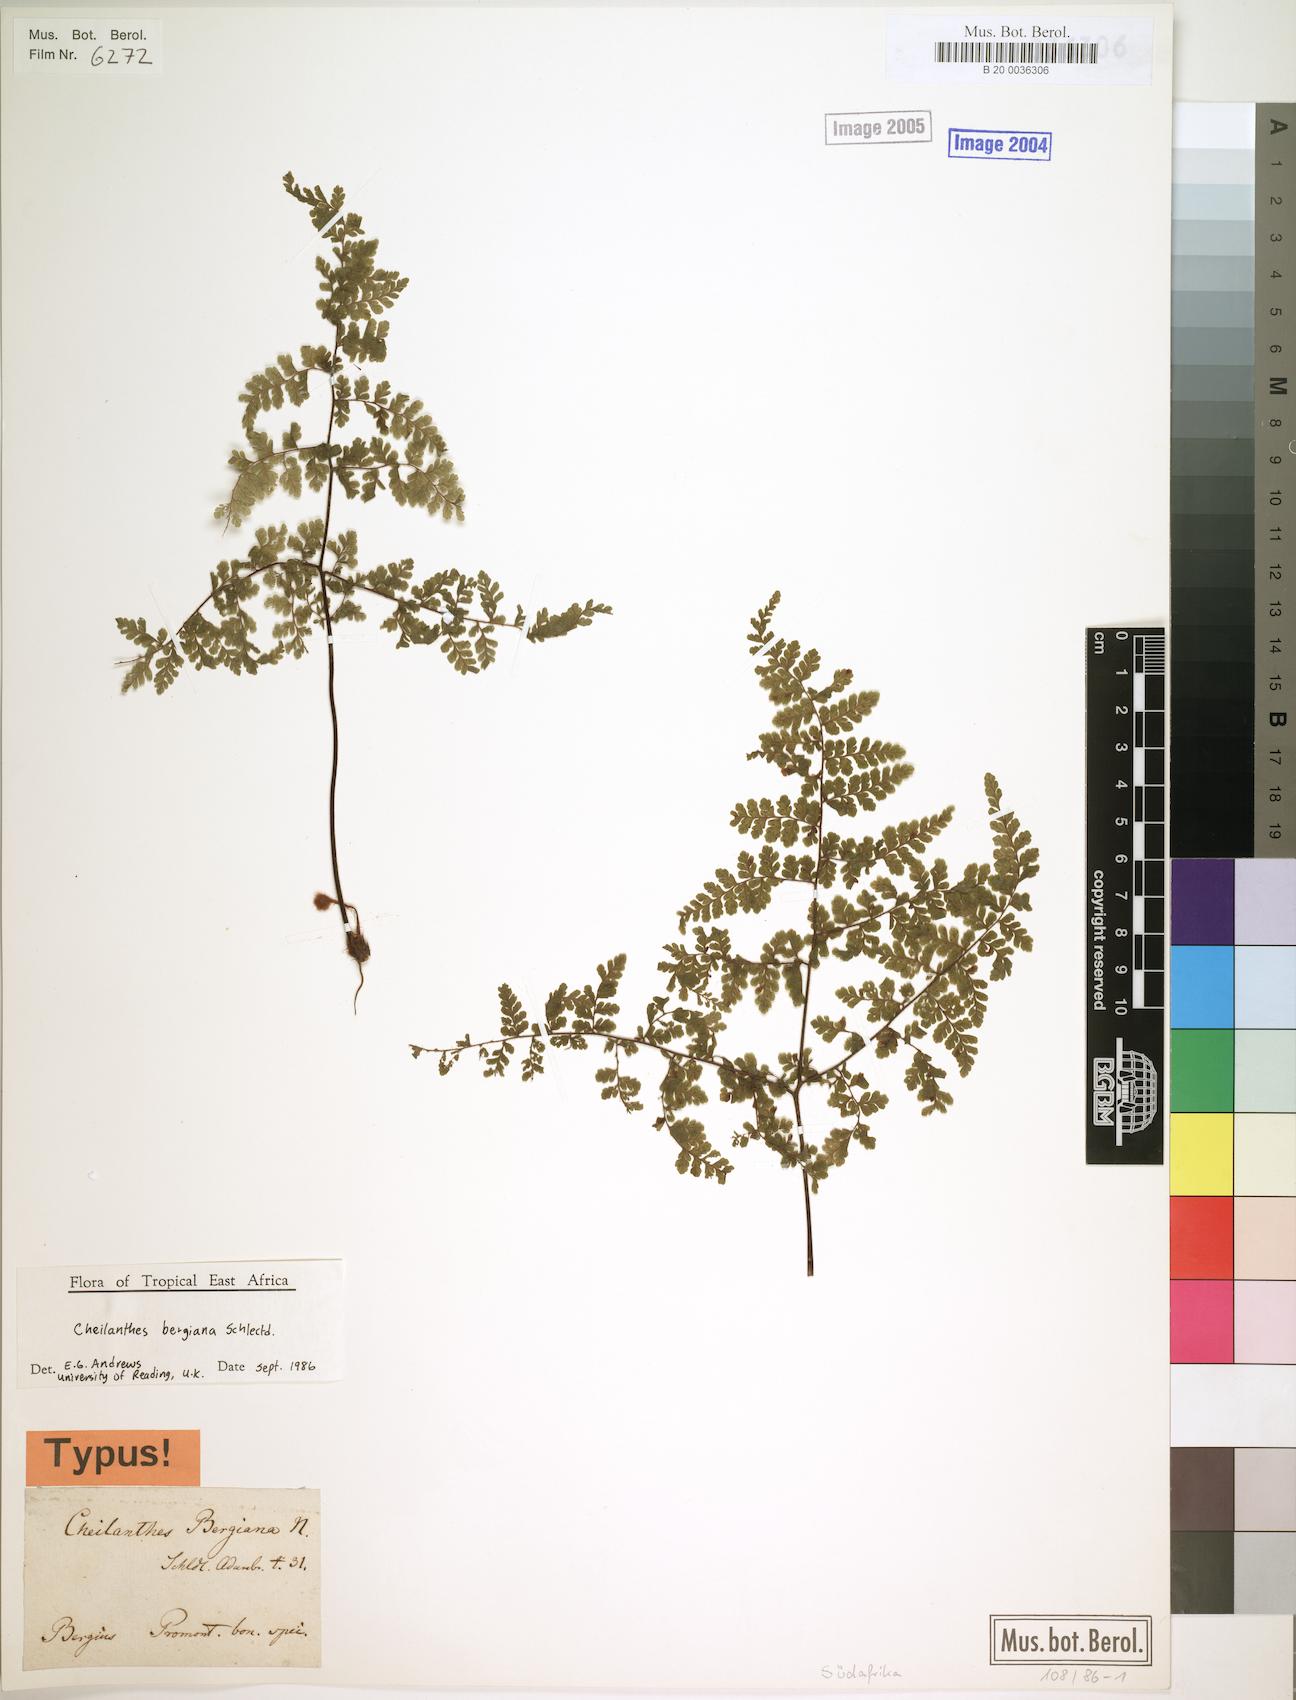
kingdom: Plantae
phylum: Tracheophyta
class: Polypodiopsida
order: Polypodiales
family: Pteridaceae
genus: Cheilanthes
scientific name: Cheilanthes bergiana
